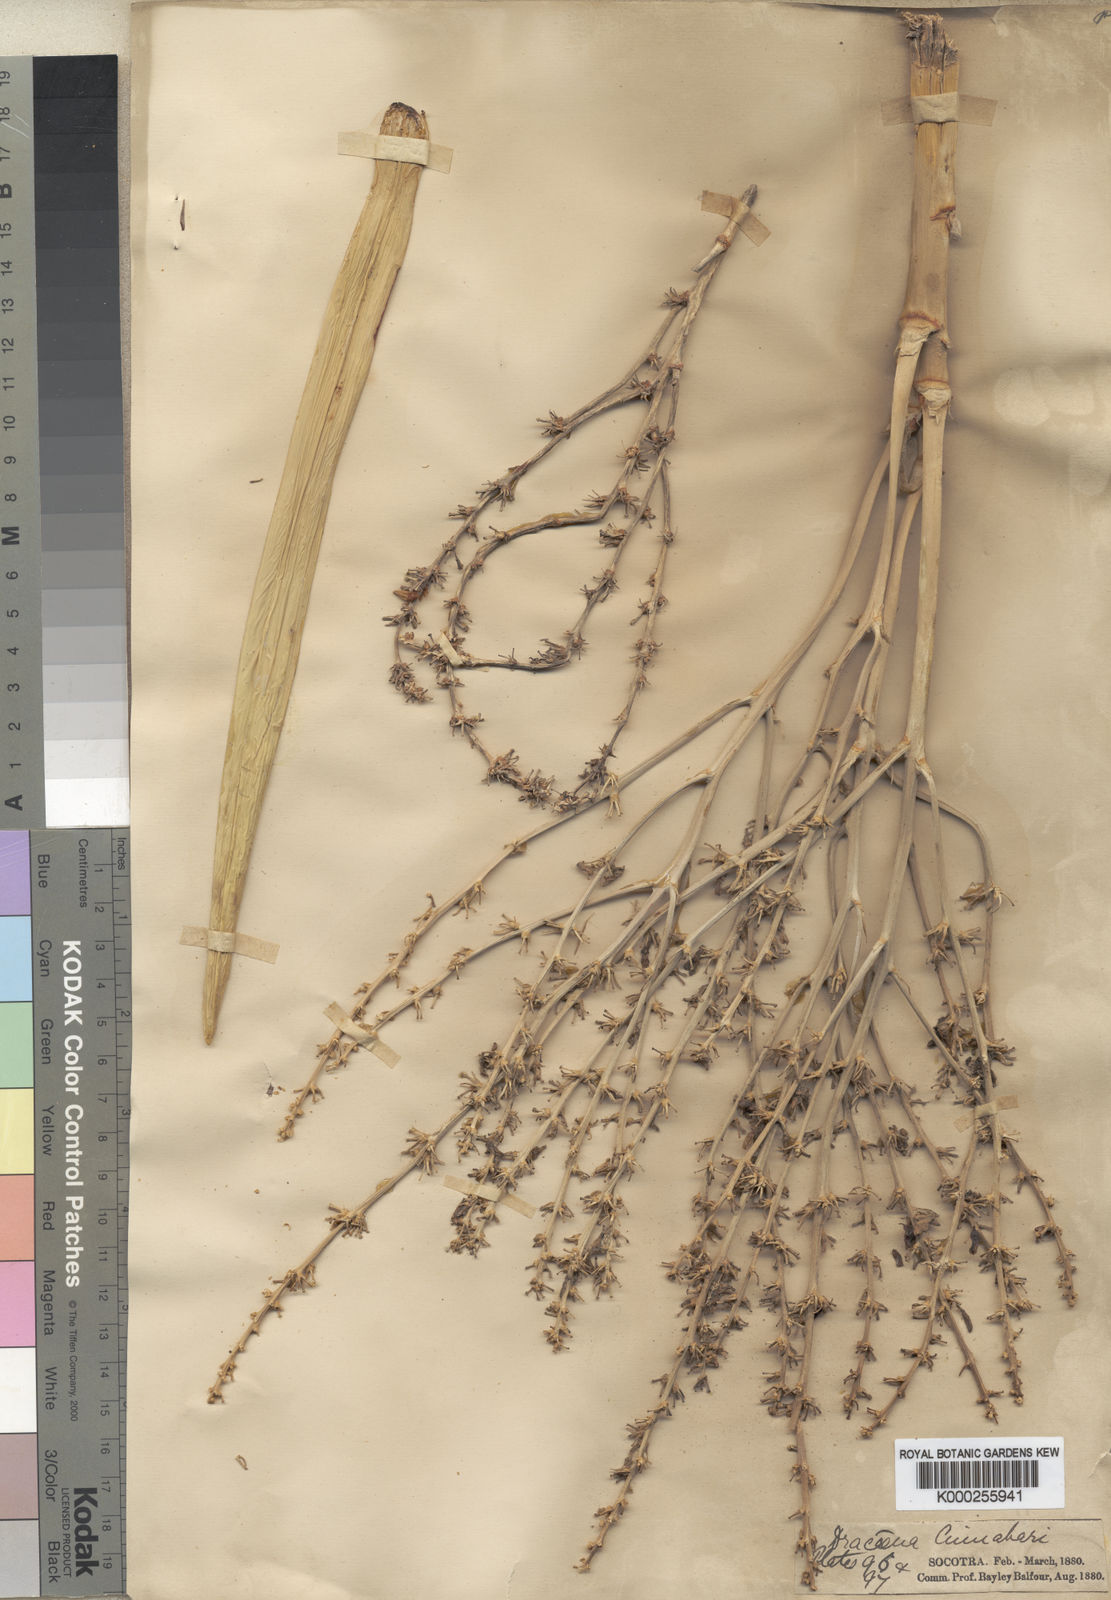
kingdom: Plantae
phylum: Tracheophyta
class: Liliopsida
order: Asparagales
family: Asparagaceae
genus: Dracaena
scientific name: Dracaena cinnabari
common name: Dragon's blood tree
